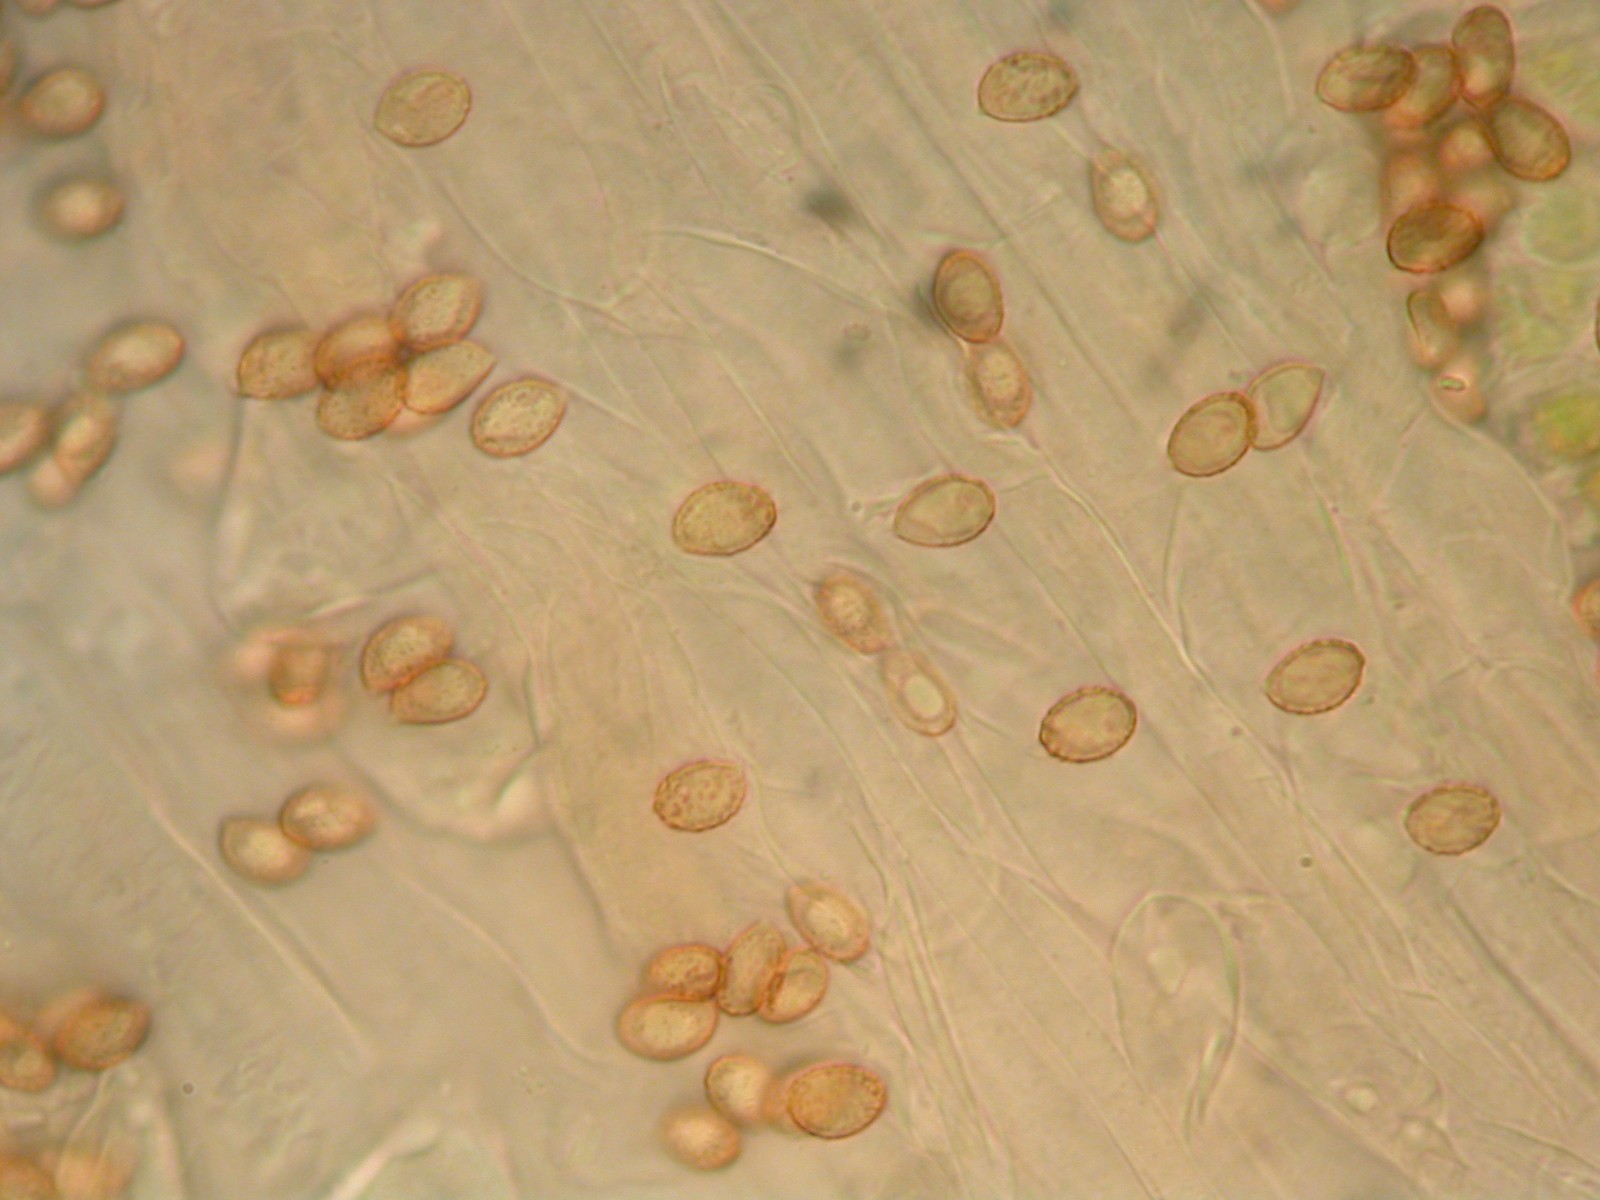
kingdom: Fungi
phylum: Basidiomycota
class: Agaricomycetes
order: Agaricales
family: Cortinariaceae
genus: Cortinarius
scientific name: Cortinarius
